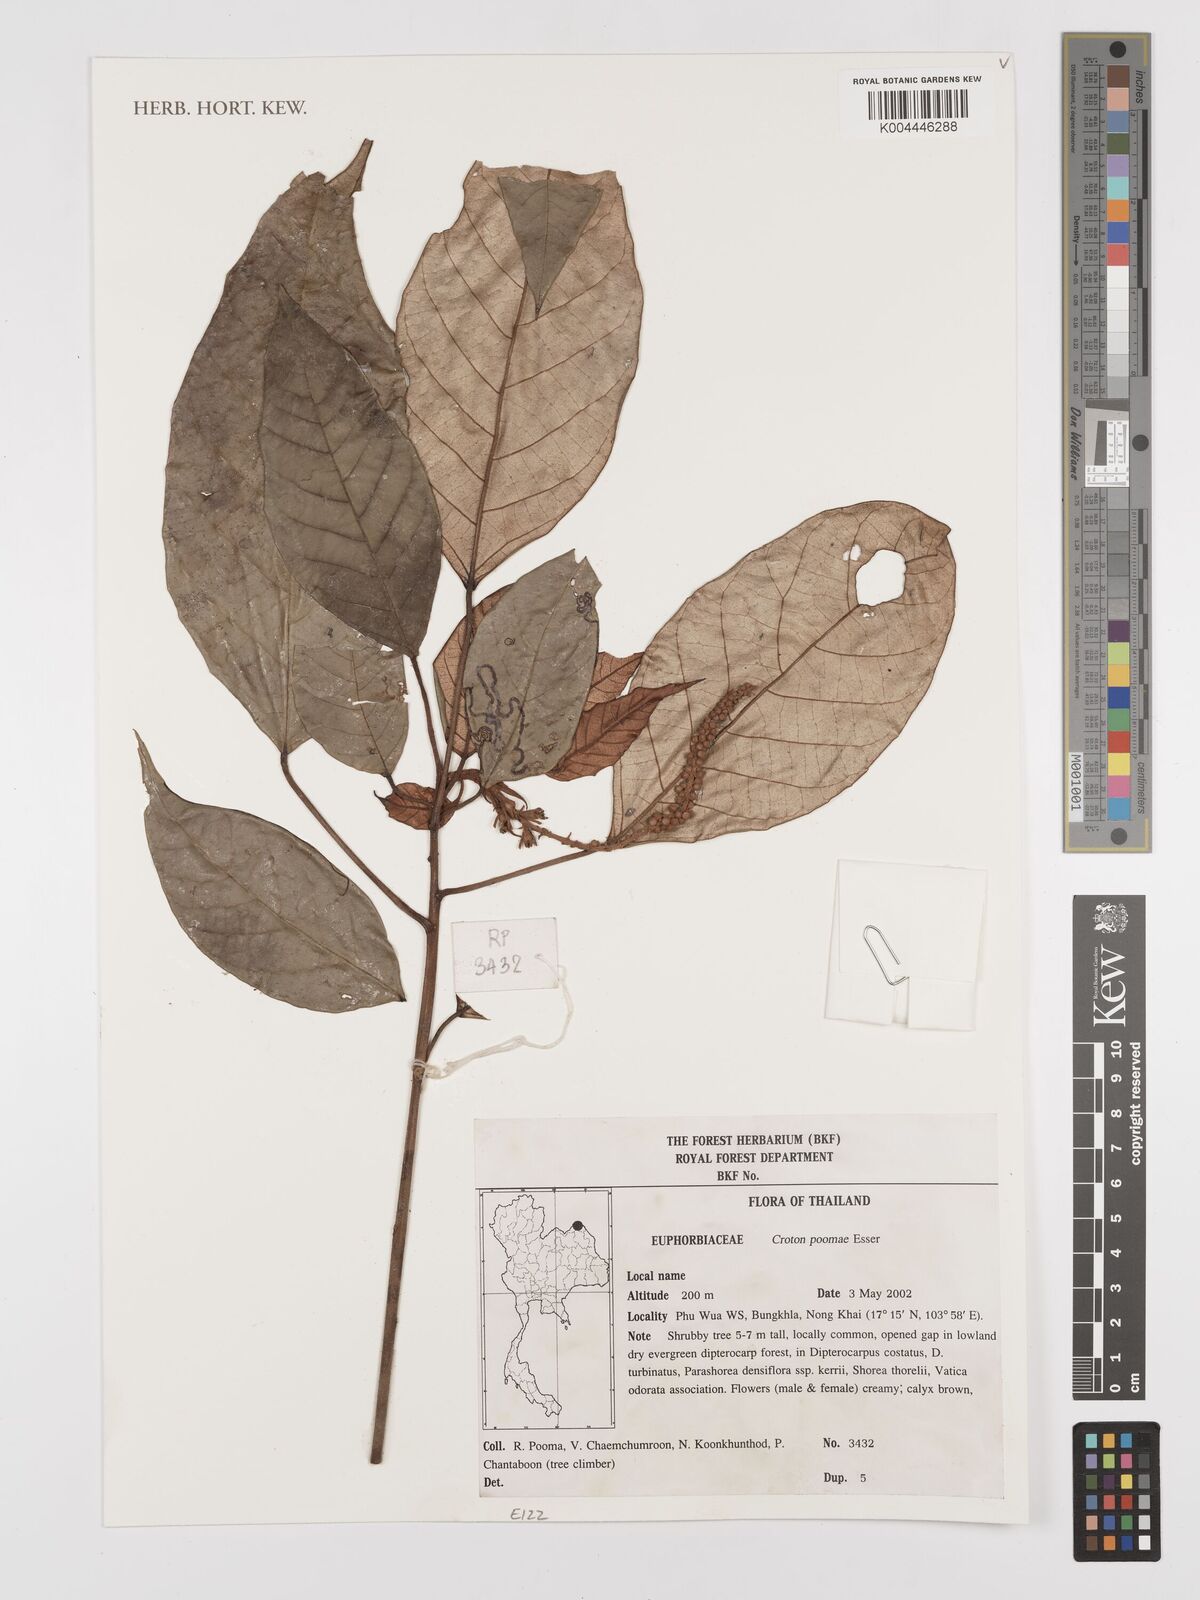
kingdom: Plantae
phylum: Tracheophyta
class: Magnoliopsida
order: Malpighiales
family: Euphorbiaceae
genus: Croton
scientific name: Croton poomae
